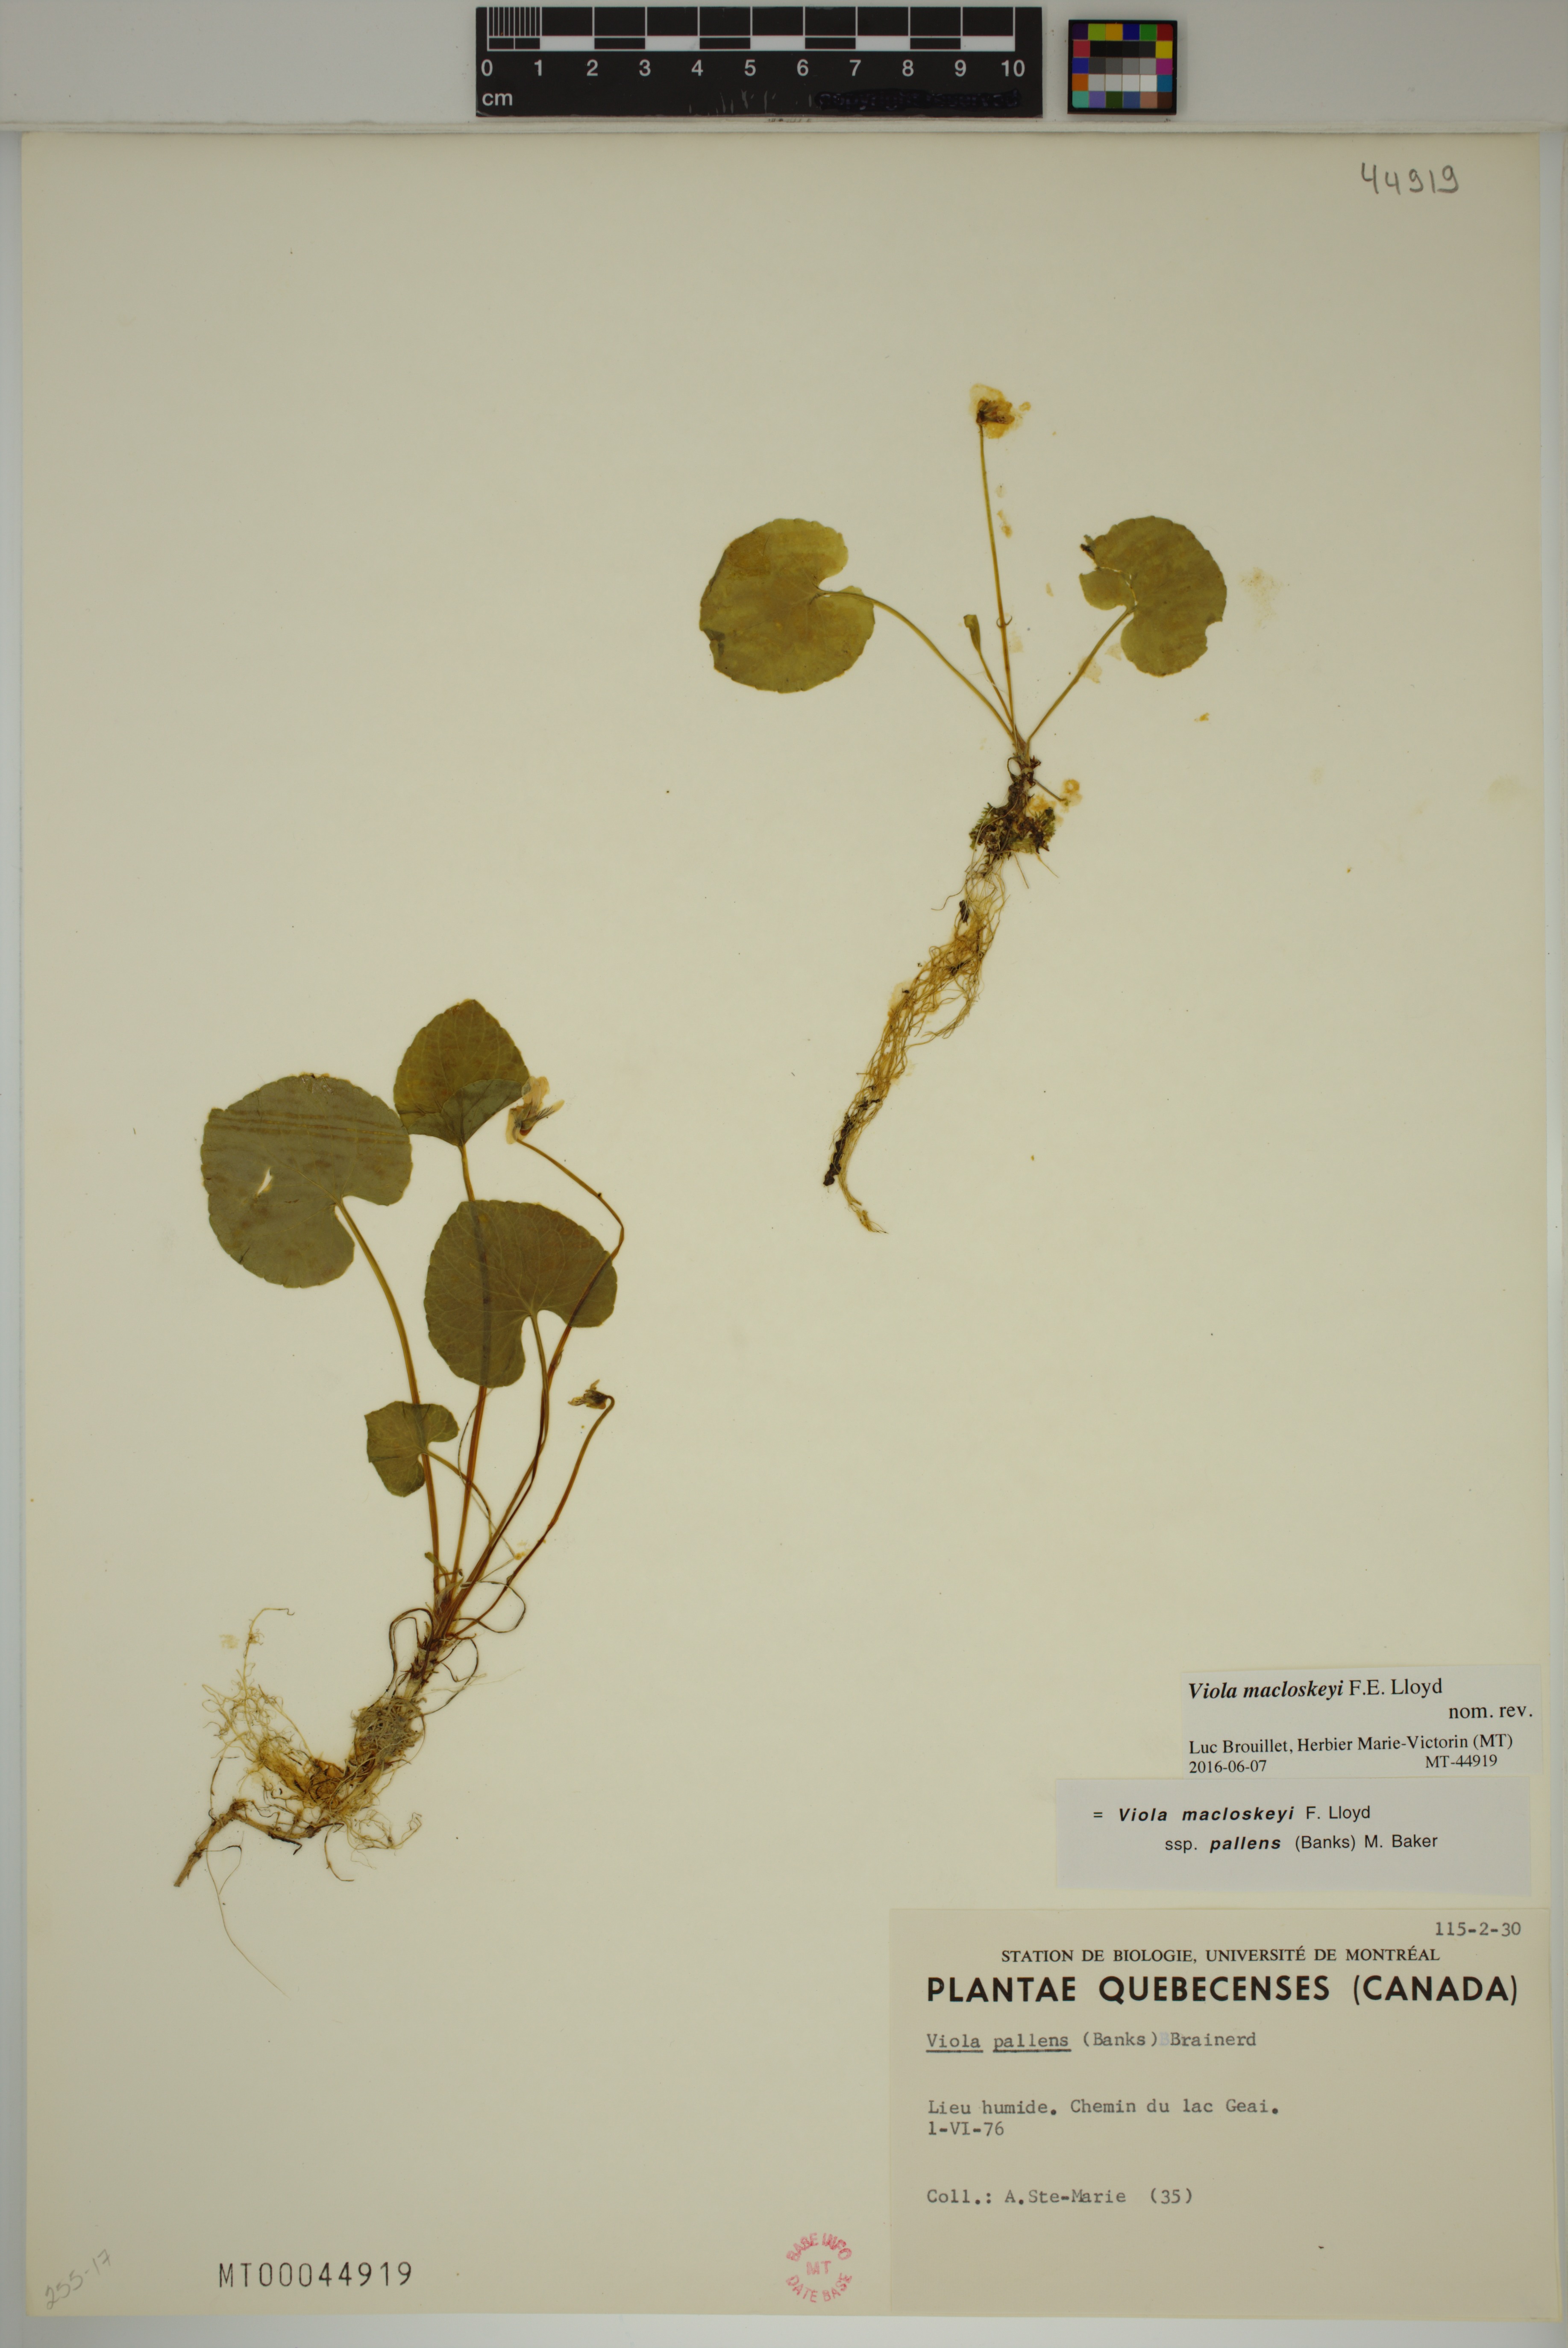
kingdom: Plantae
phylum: Tracheophyta
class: Magnoliopsida
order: Malpighiales
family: Violaceae
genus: Viola
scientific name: Viola macloskeyi
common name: Macloskey's violet
